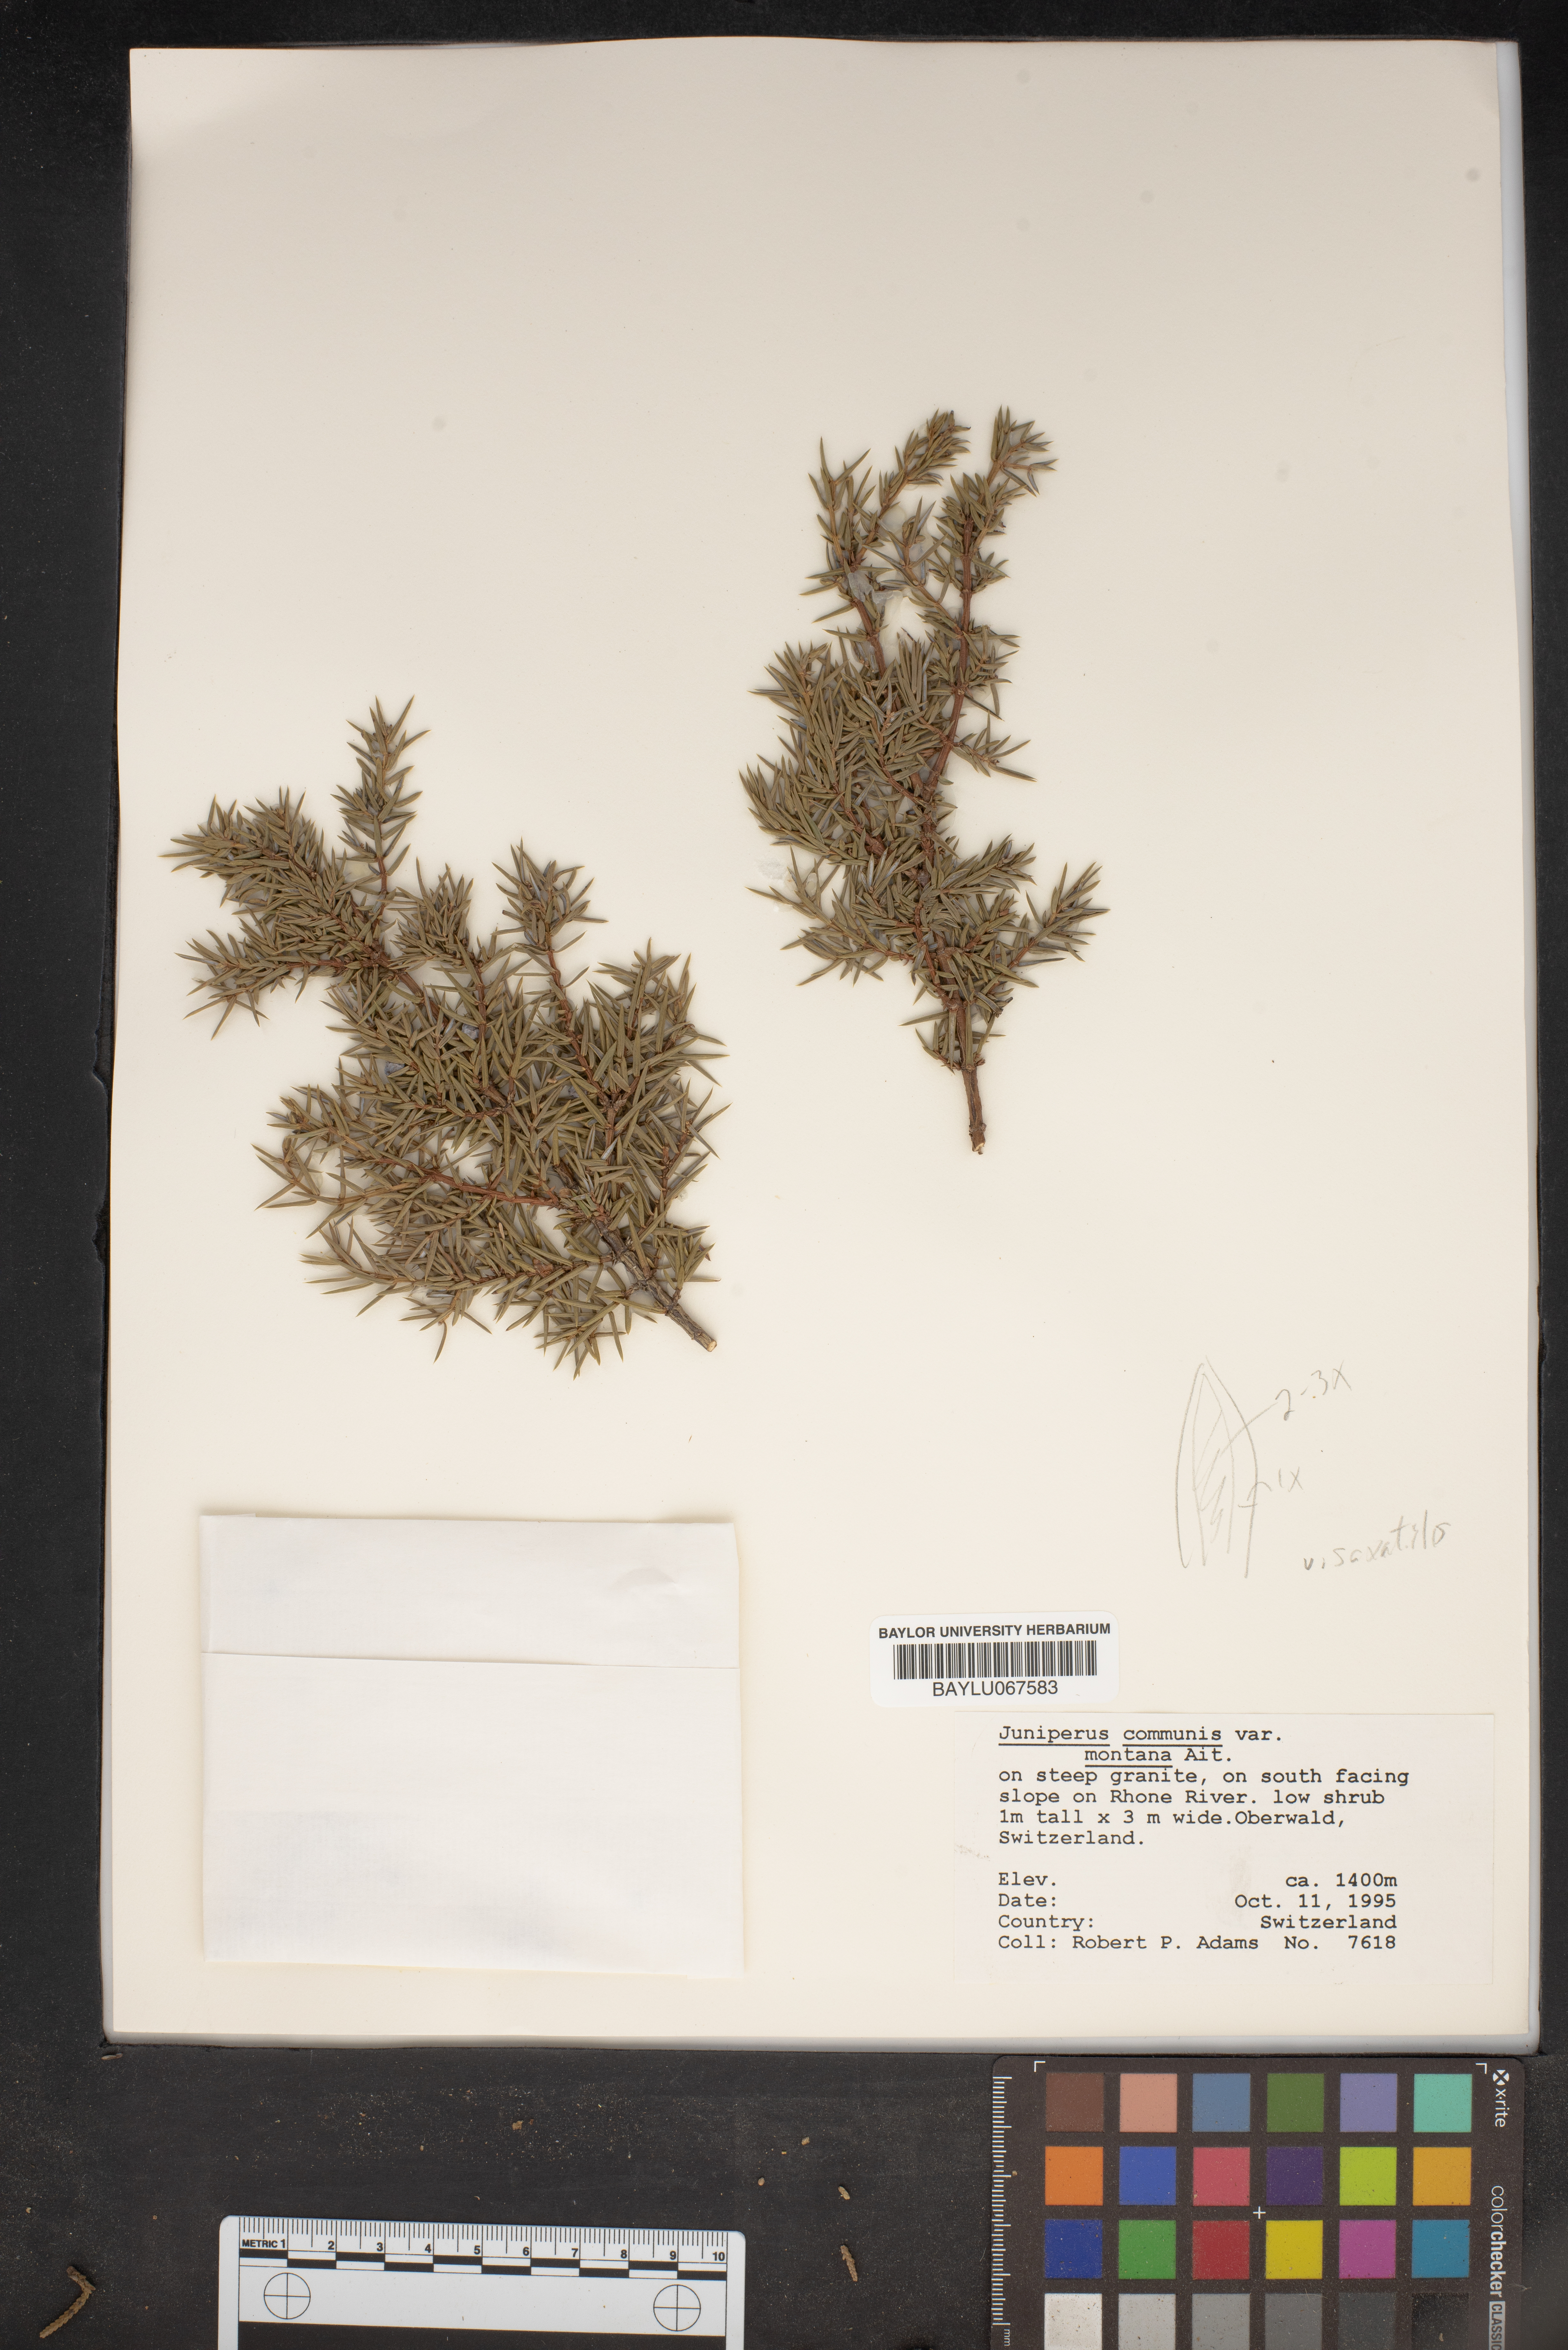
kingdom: Plantae
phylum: Tracheophyta
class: Pinopsida
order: Pinales
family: Cupressaceae
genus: Juniperus
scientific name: Juniperus communis
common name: Common juniper
